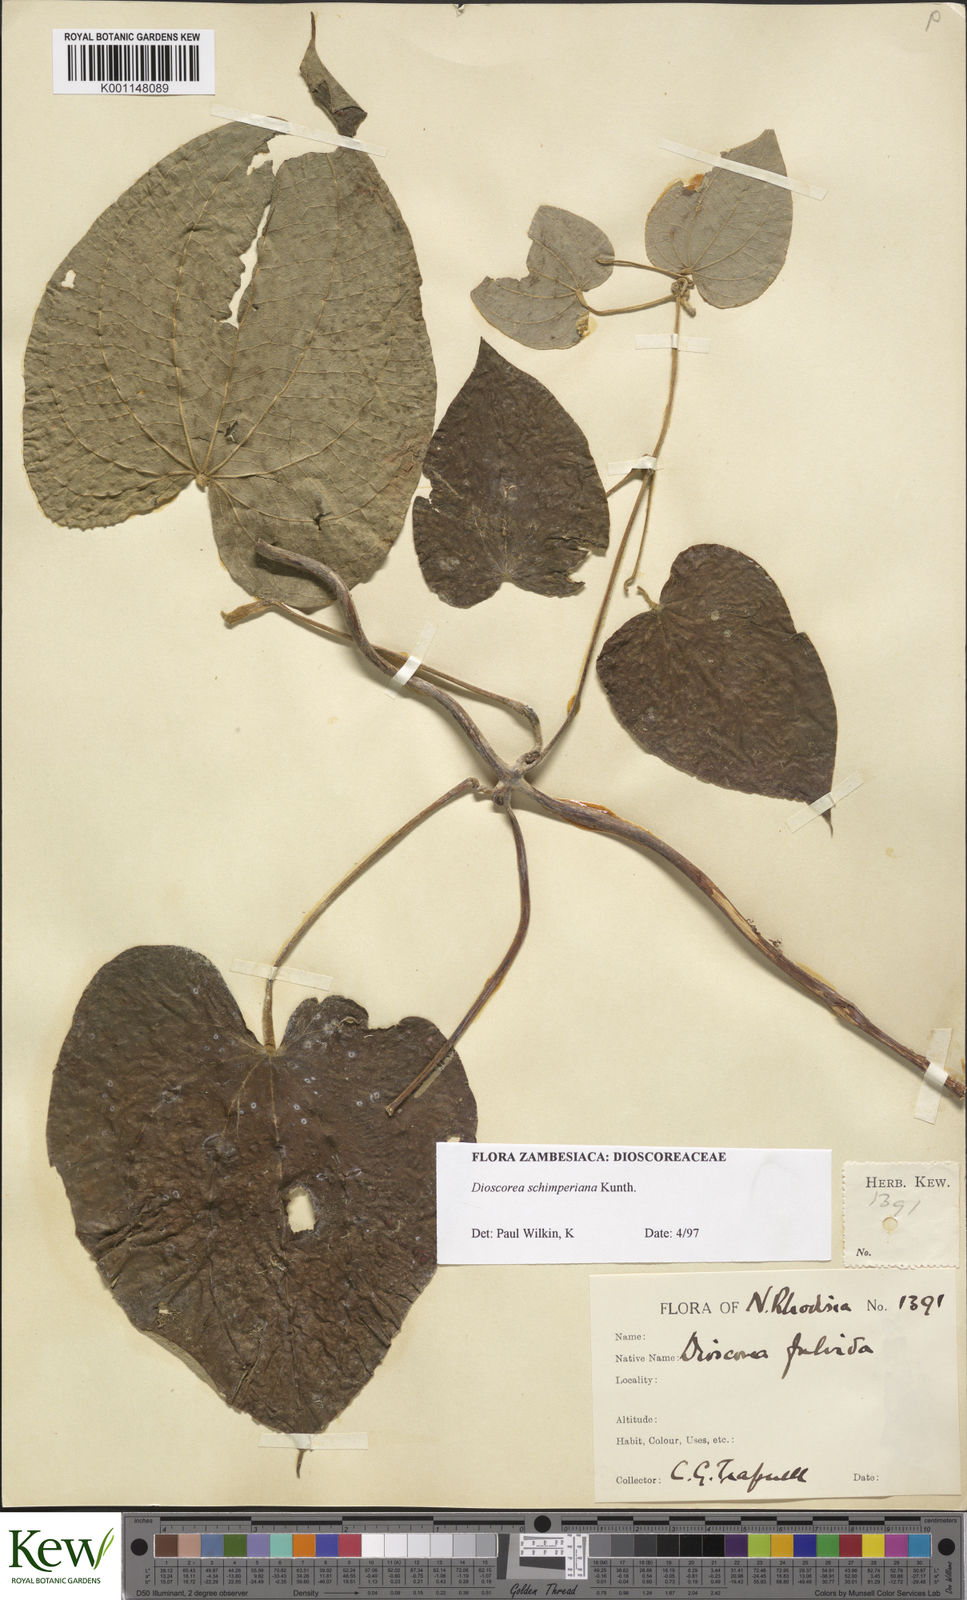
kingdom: Plantae
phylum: Tracheophyta
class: Liliopsida
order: Dioscoreales
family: Dioscoreaceae
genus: Dioscorea
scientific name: Dioscorea schimperiana
